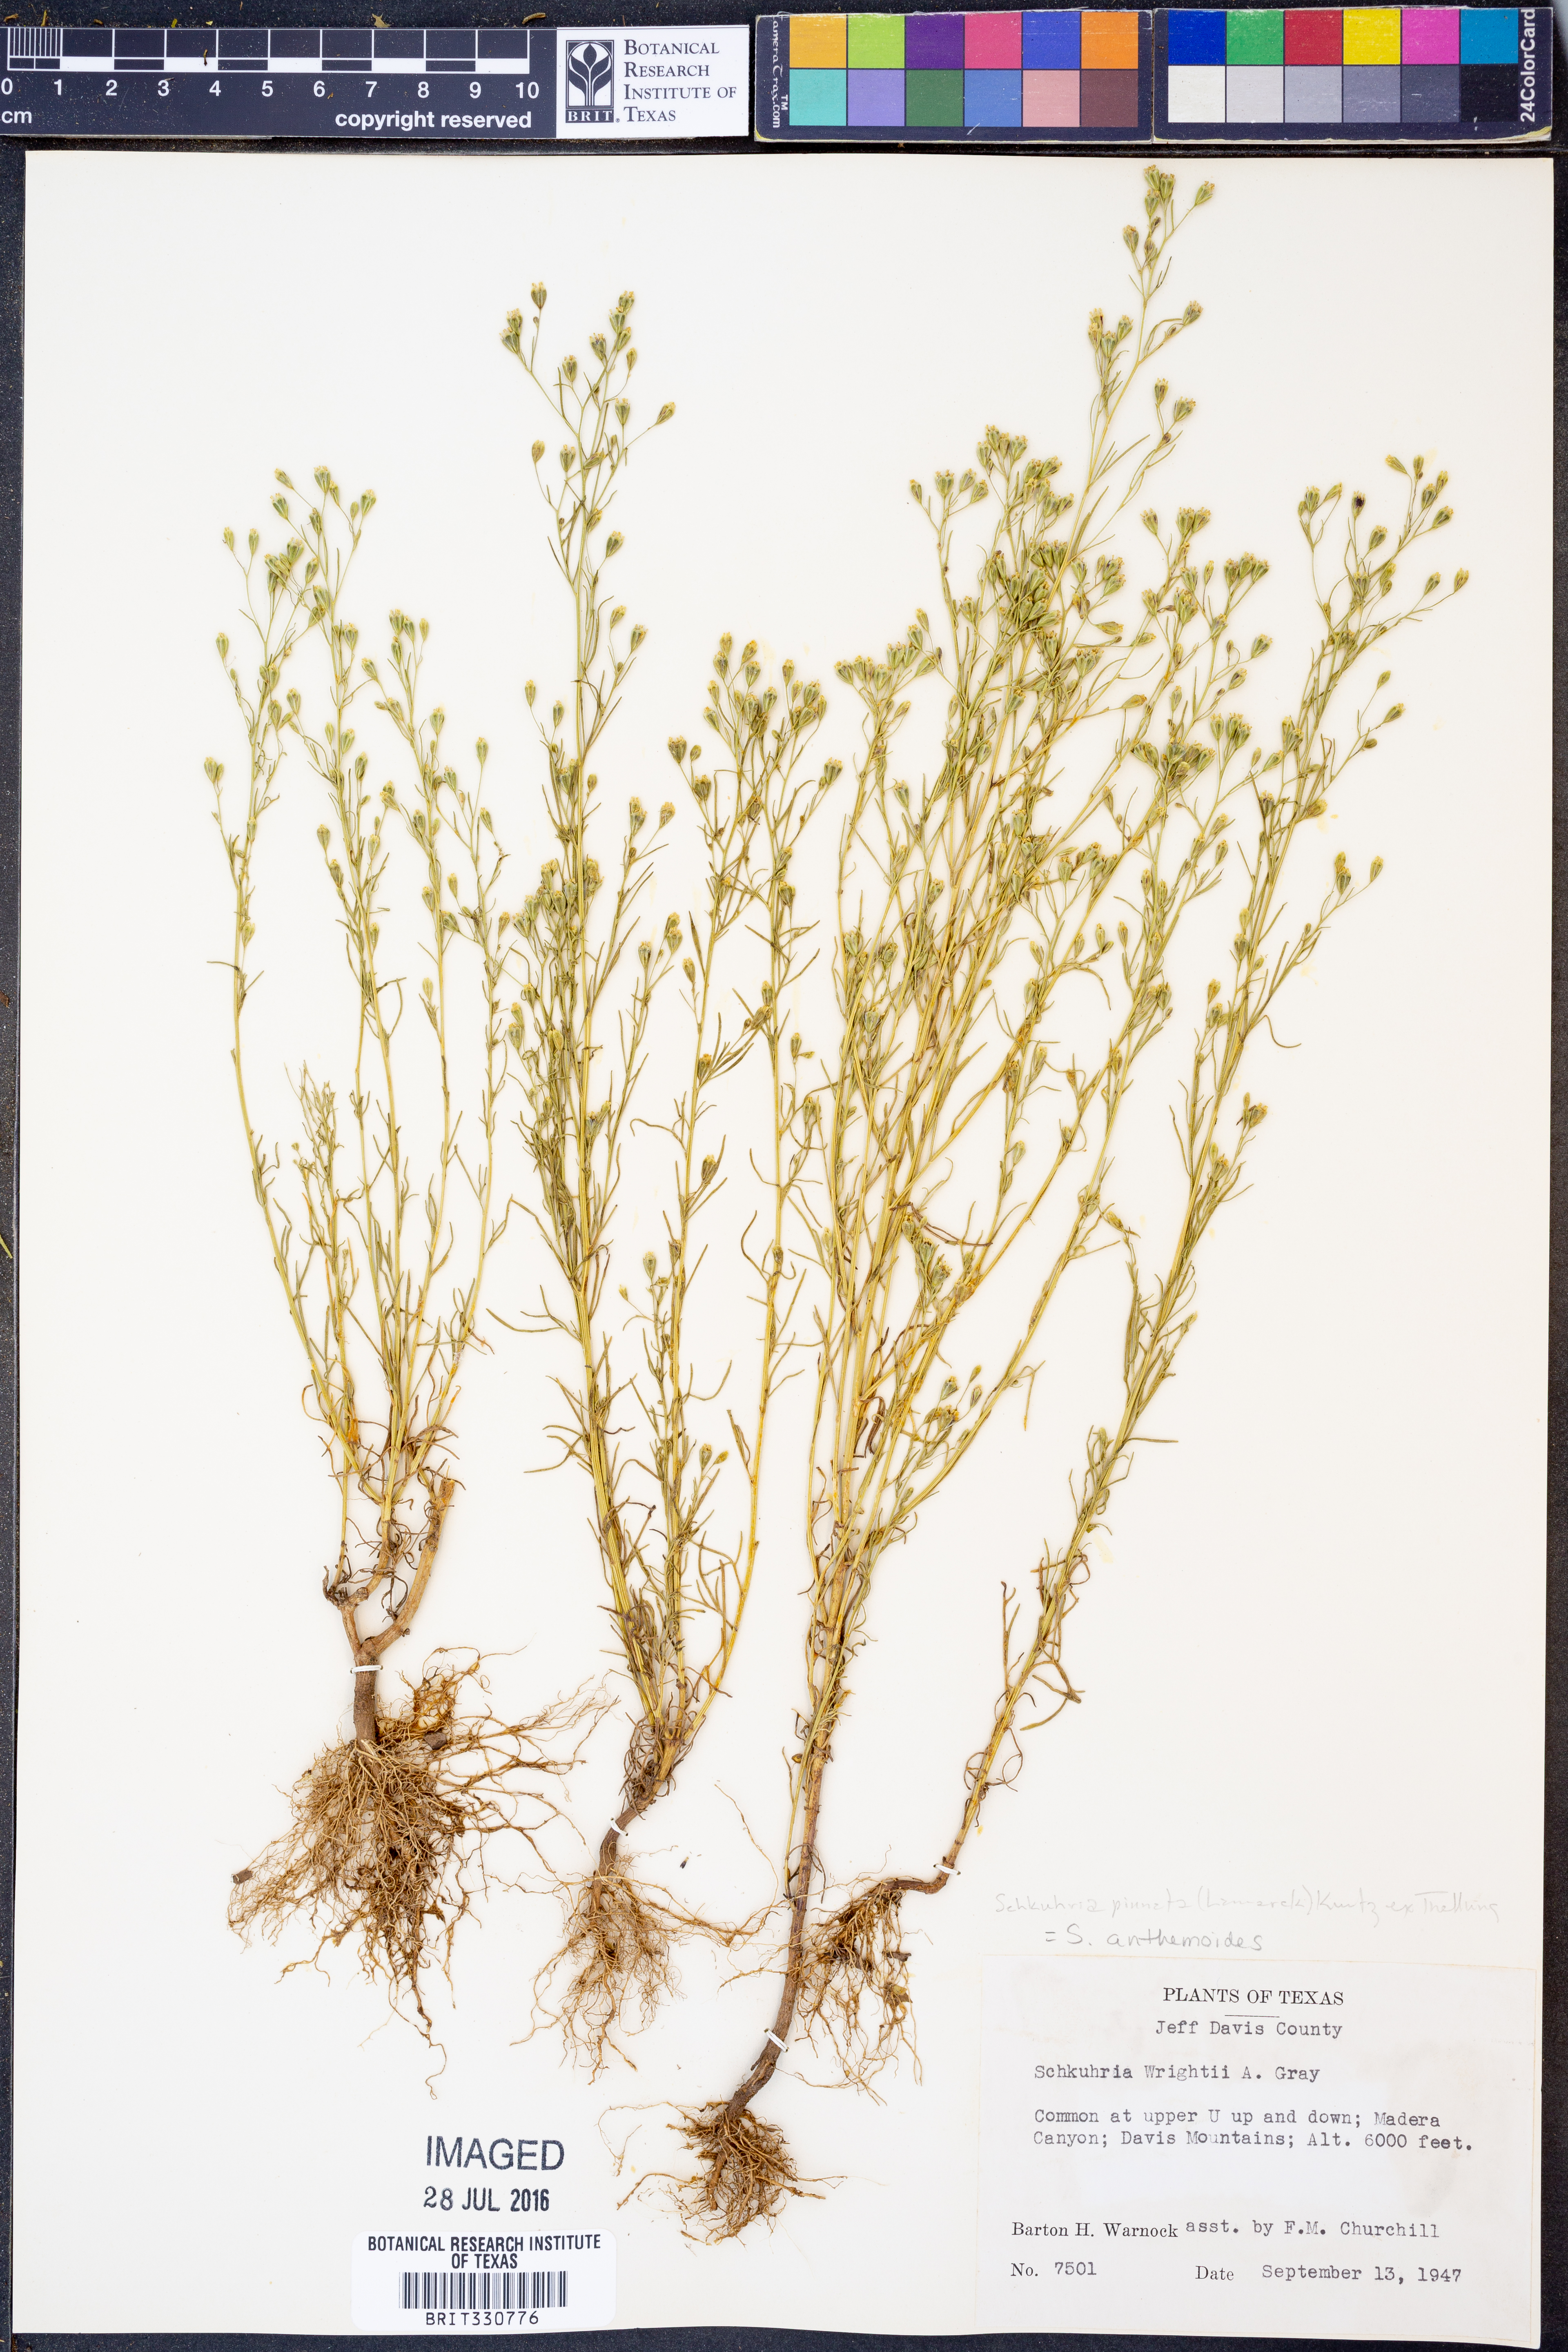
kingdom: Plantae
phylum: Tracheophyta
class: Magnoliopsida
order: Asterales
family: Asteraceae
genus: Schkuhria
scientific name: Schkuhria pinnata
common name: Dwarf marigold
